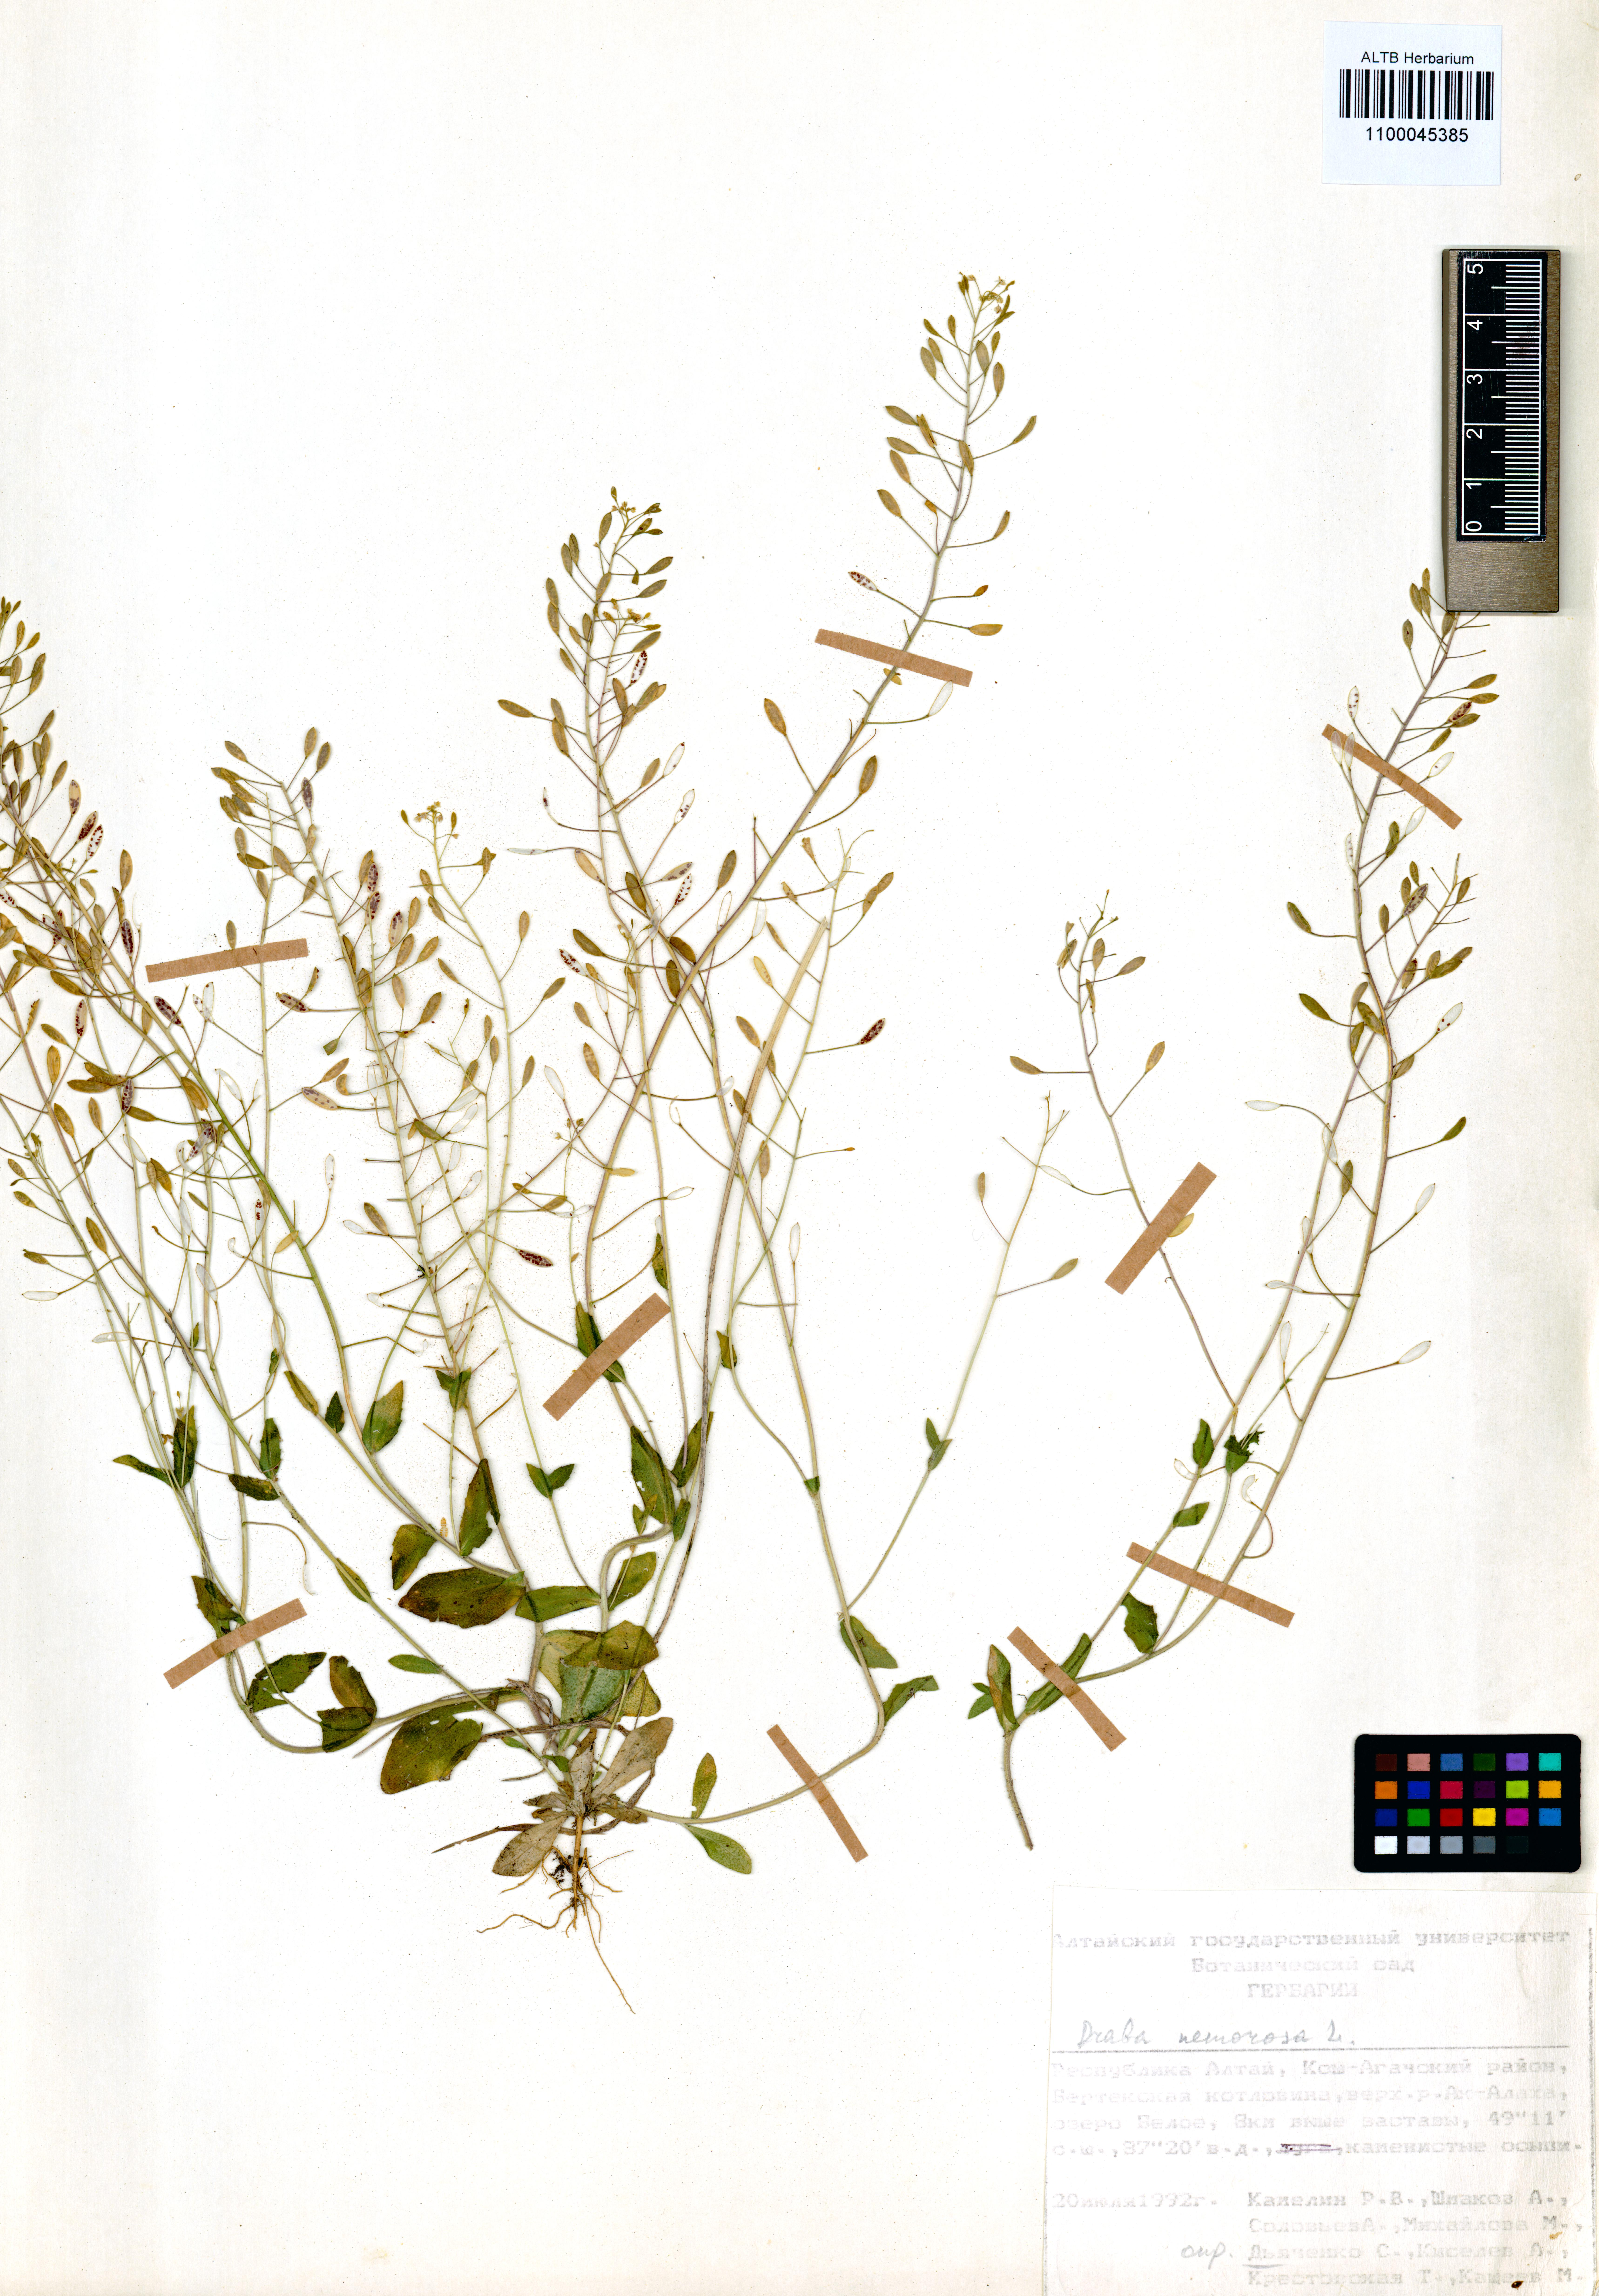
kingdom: Plantae
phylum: Tracheophyta
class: Magnoliopsida
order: Brassicales
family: Brassicaceae
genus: Draba
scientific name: Draba nemorosa
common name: Wood whitlow-grass
